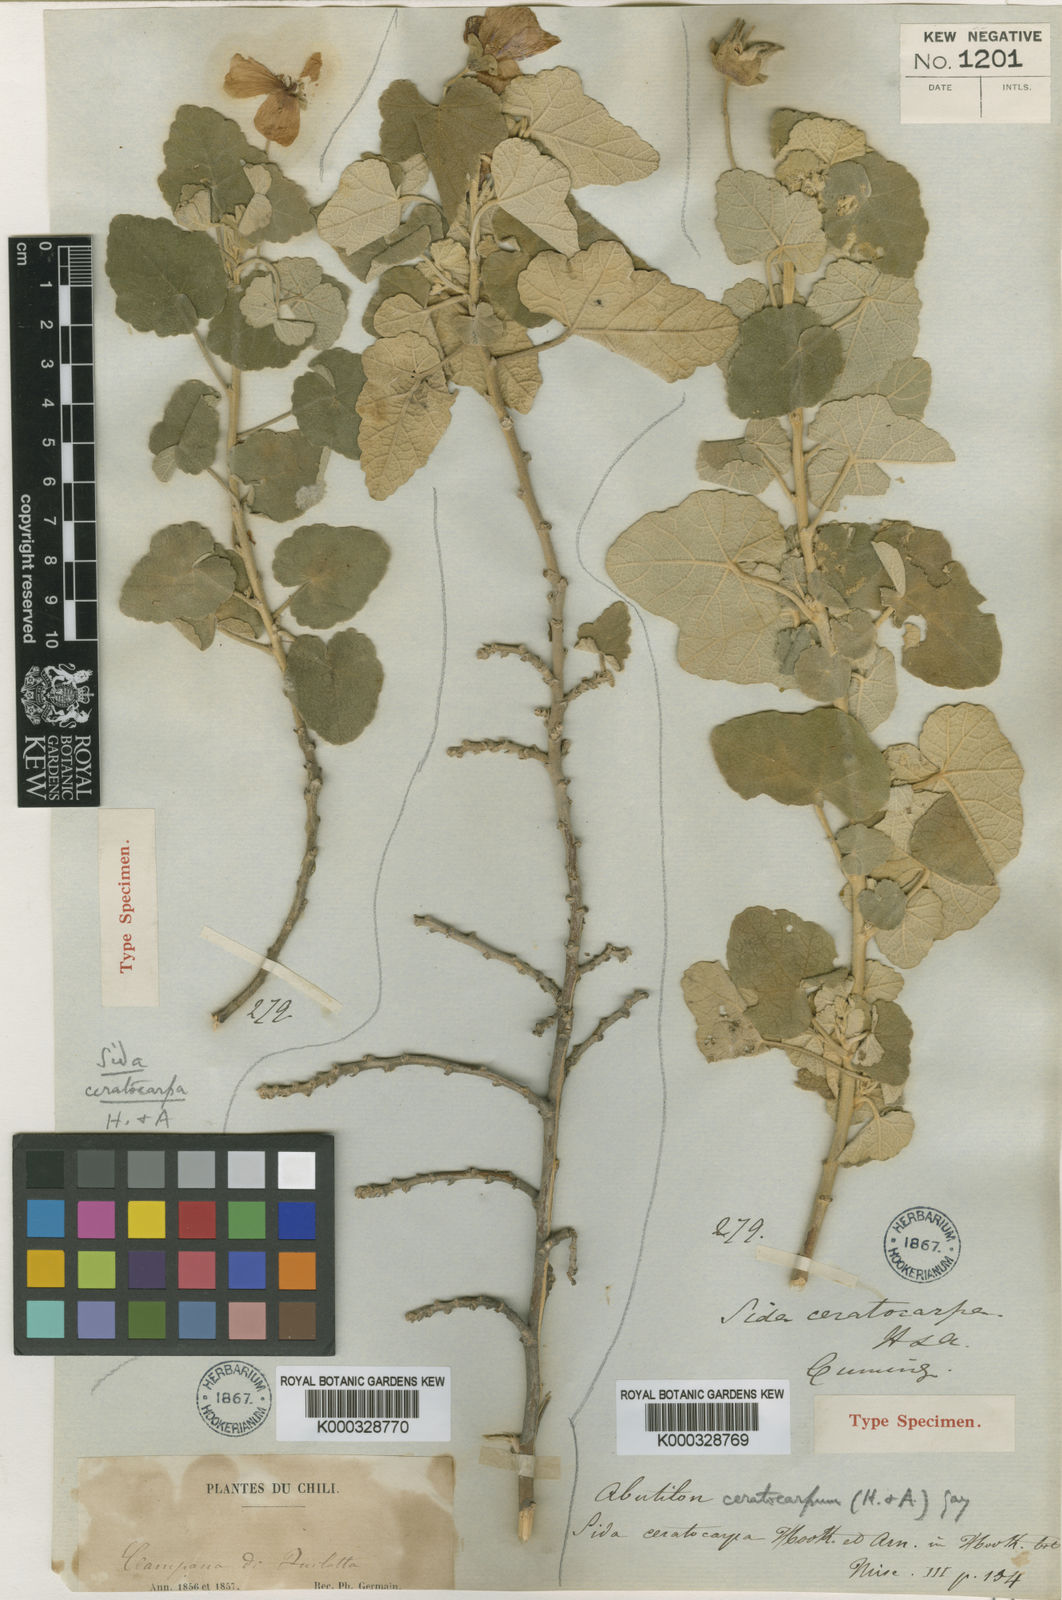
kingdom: Plantae
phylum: Tracheophyta
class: Magnoliopsida
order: Malvales
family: Malvaceae
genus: Corynabutilon
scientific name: Corynabutilon ceratocarpum
